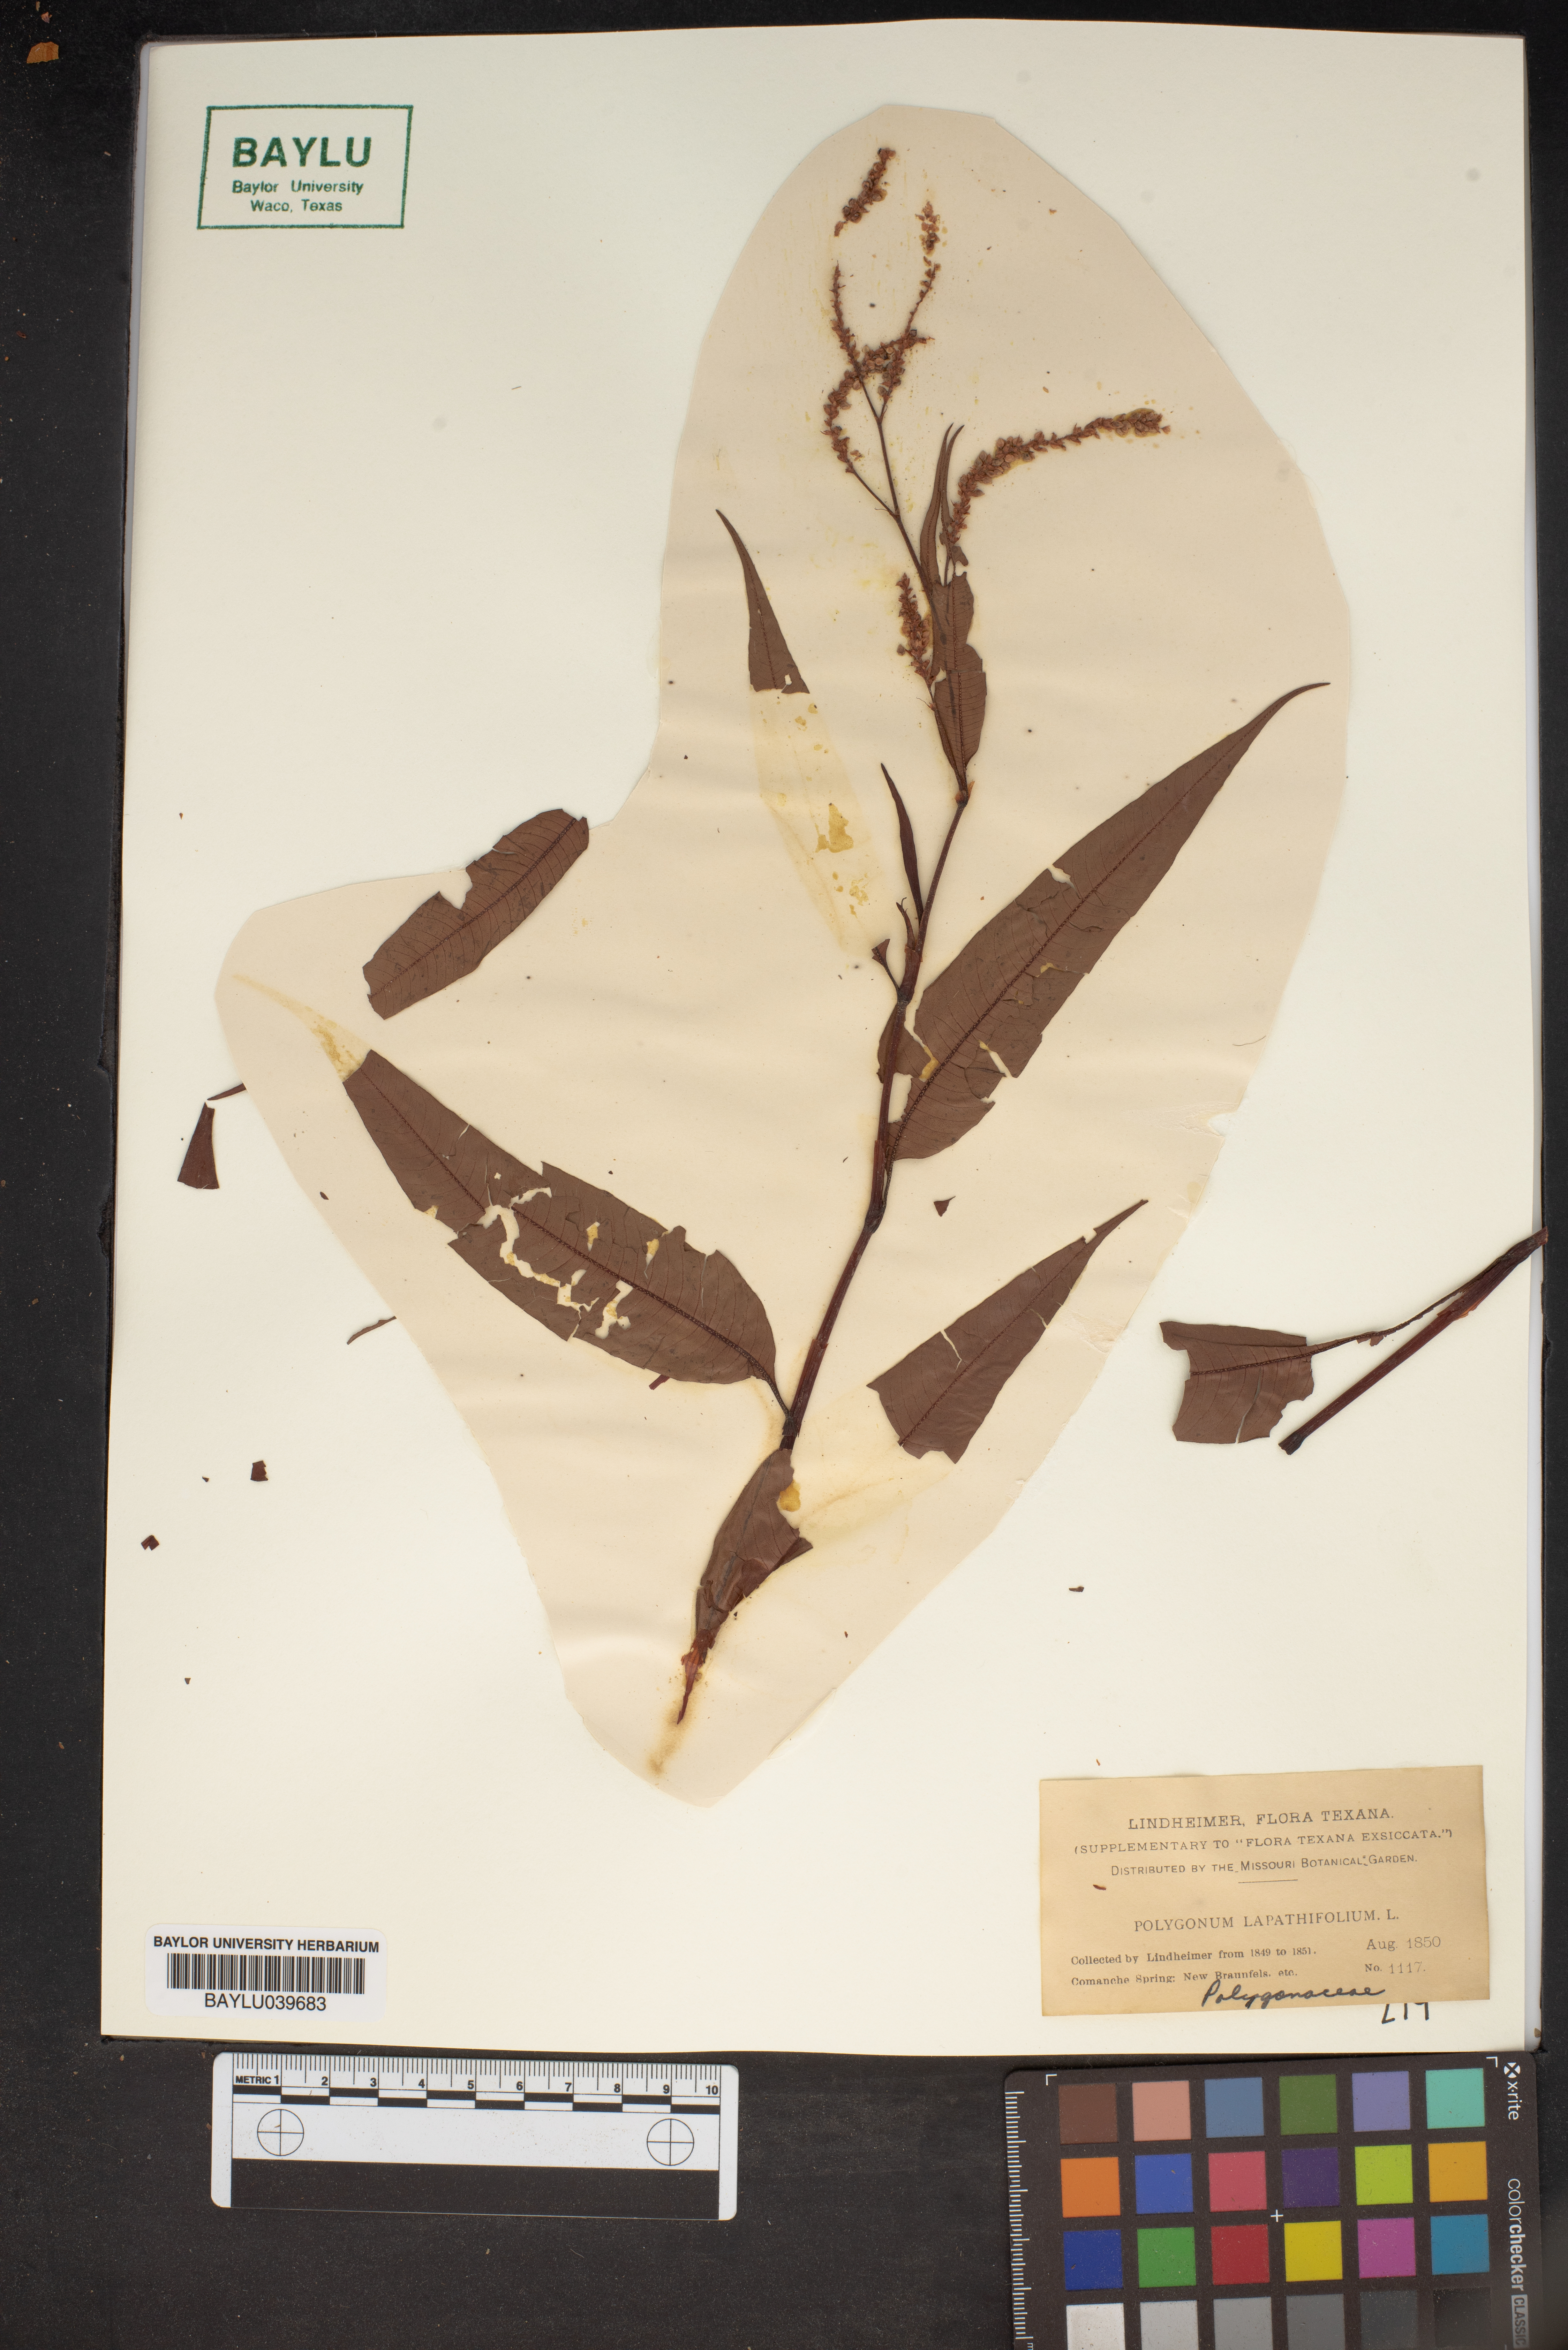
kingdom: Plantae
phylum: Tracheophyta
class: Magnoliopsida
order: Caryophyllales
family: Polygonaceae
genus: Persicaria
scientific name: Persicaria lapathifolia
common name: Curlytop knotweed
